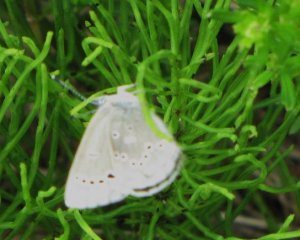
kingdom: Animalia
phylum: Arthropoda
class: Insecta
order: Lepidoptera
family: Lycaenidae
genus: Glaucopsyche
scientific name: Glaucopsyche lygdamus
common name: Silvery Blue
